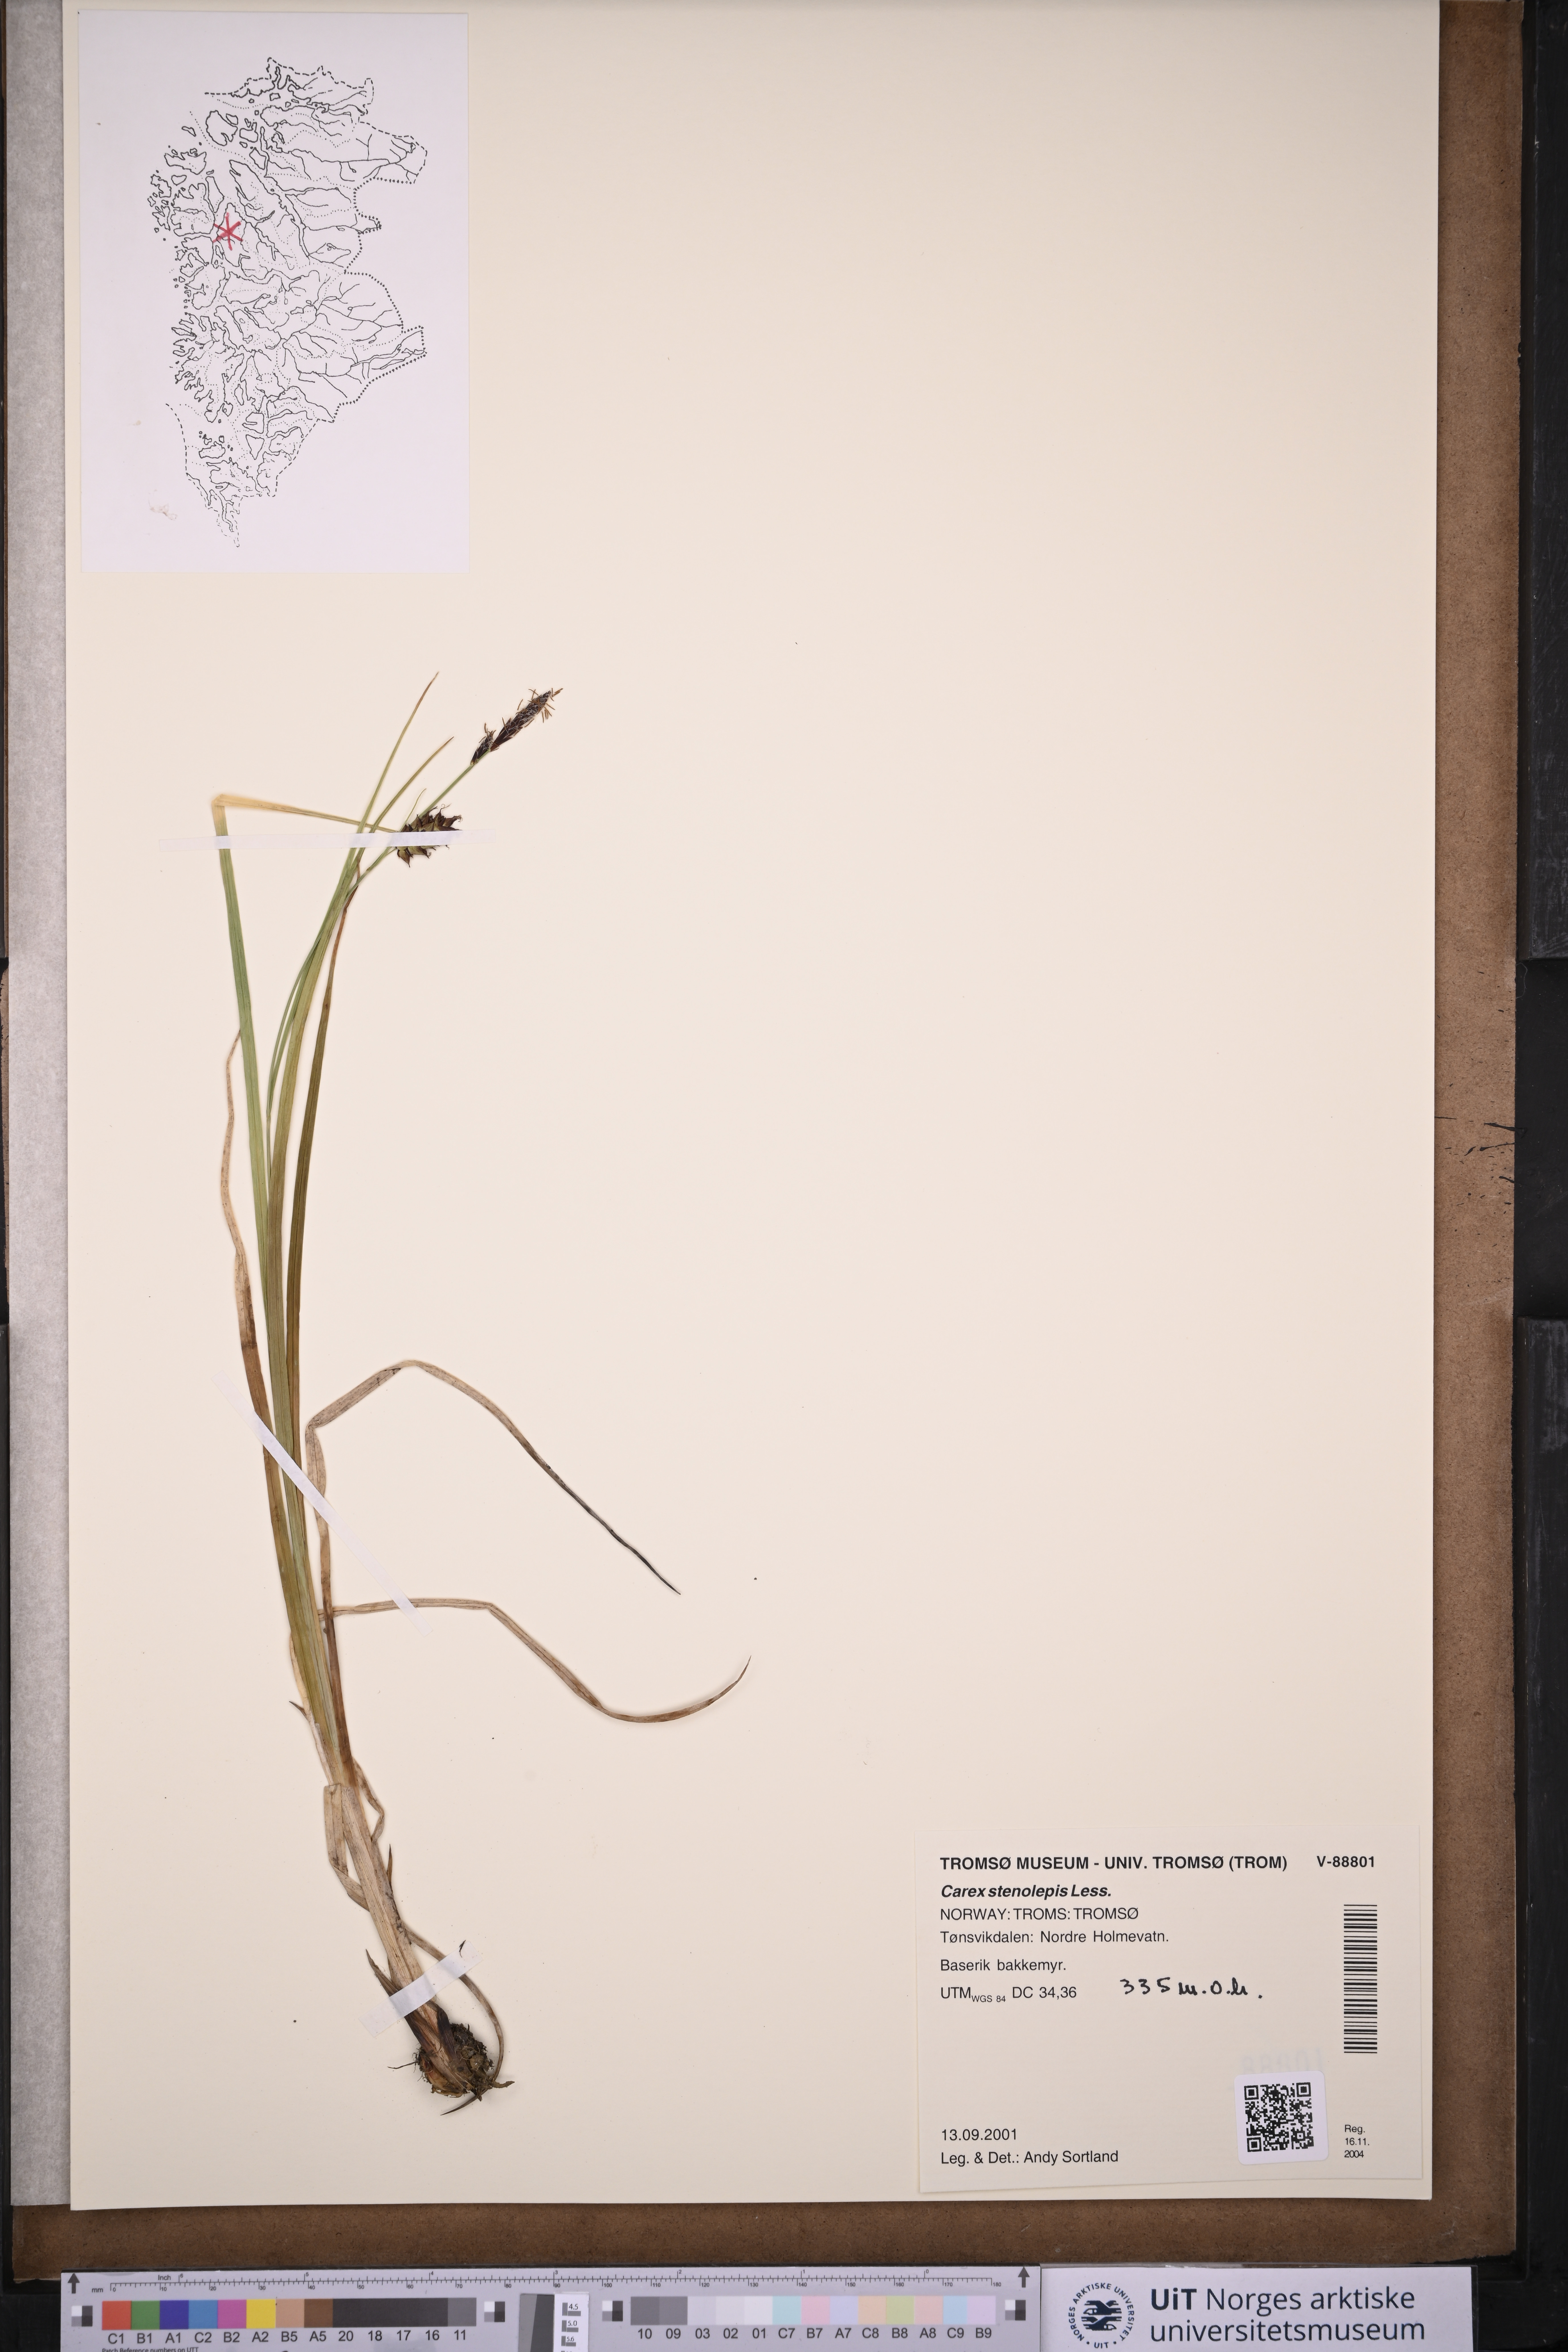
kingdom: Plantae
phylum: Tracheophyta
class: Liliopsida
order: Poales
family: Cyperaceae
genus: Carex
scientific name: Carex grahamii
